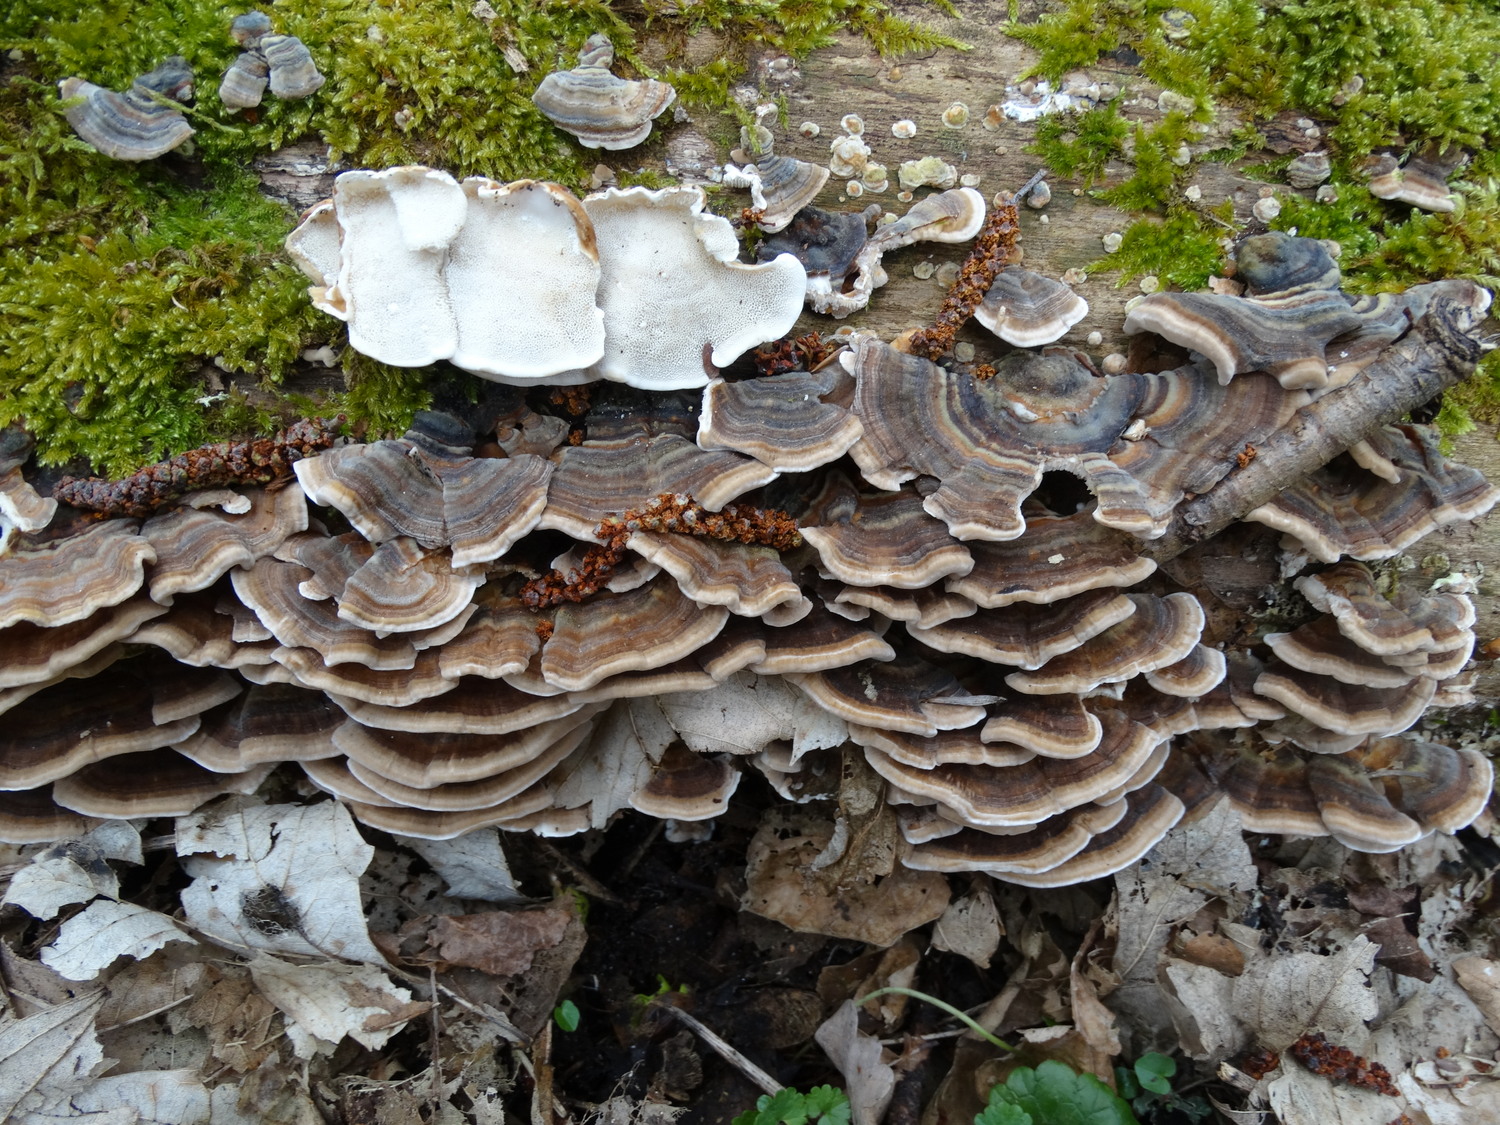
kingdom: Fungi
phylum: Basidiomycota
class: Agaricomycetes
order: Polyporales
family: Polyporaceae
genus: Trametes
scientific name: Trametes versicolor
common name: broget læderporesvamp
